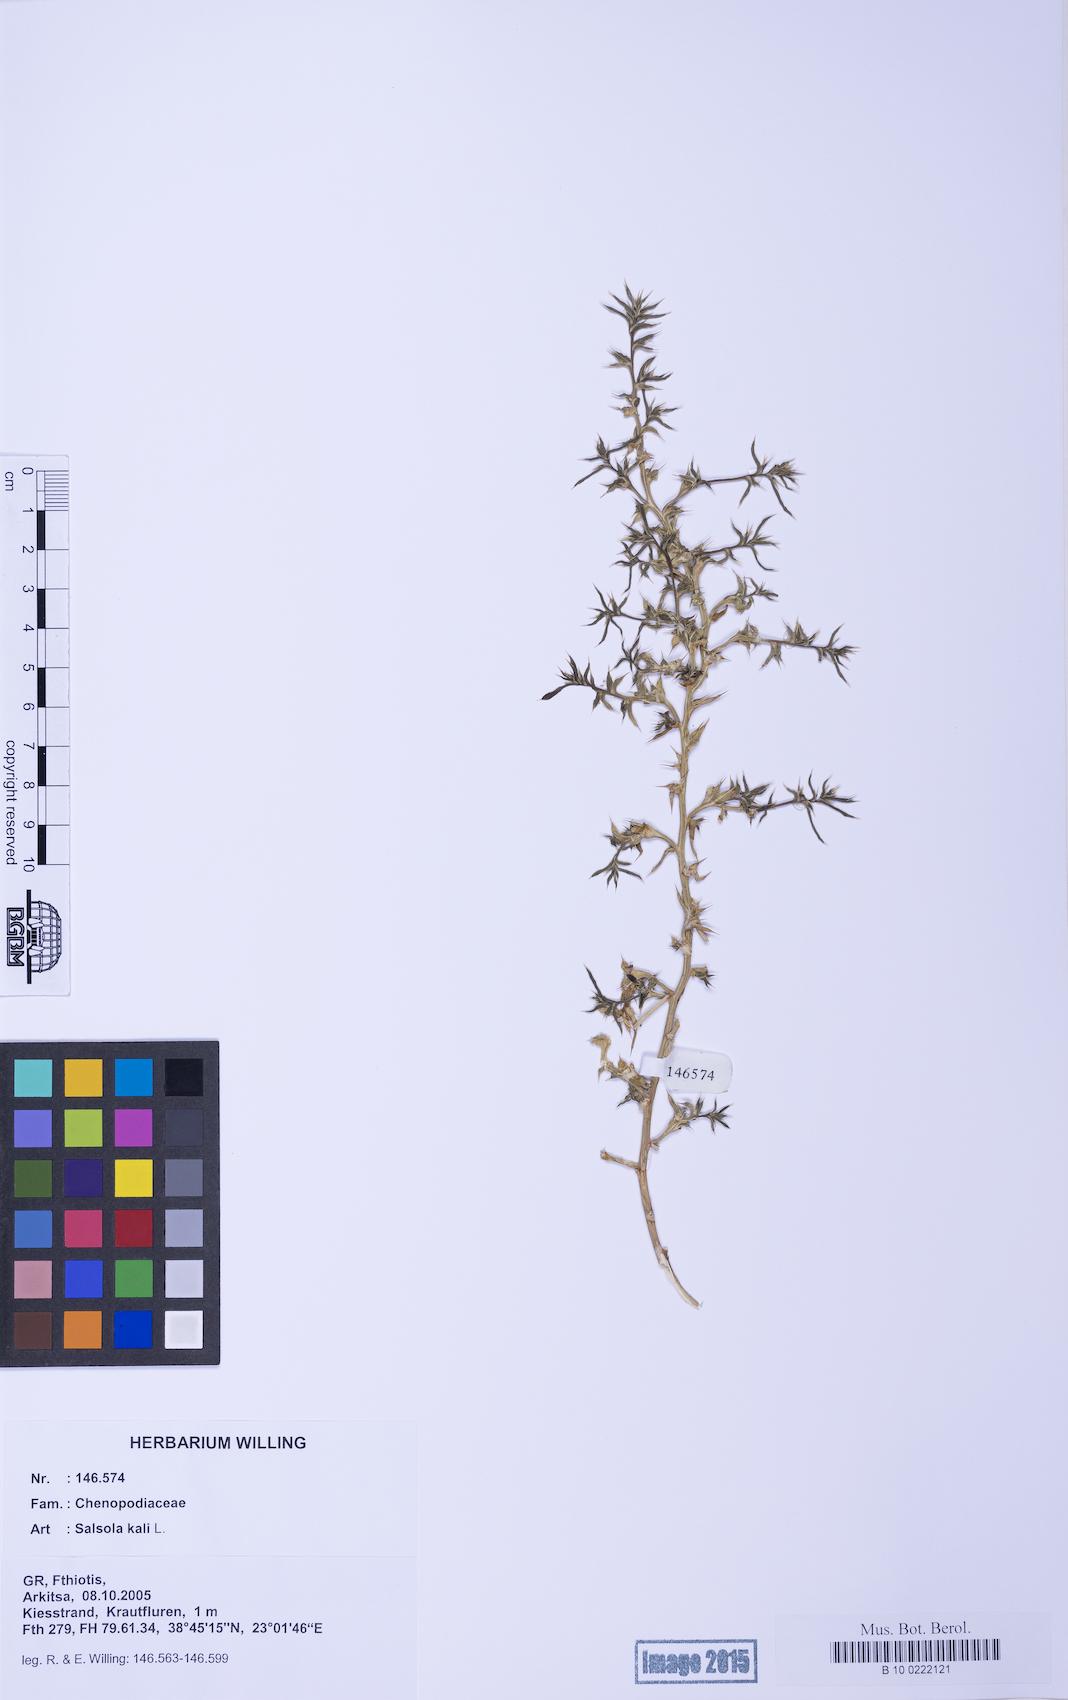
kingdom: Plantae
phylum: Tracheophyta
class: Magnoliopsida
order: Caryophyllales
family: Amaranthaceae
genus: Salsola
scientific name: Salsola kali
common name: Saltwort
